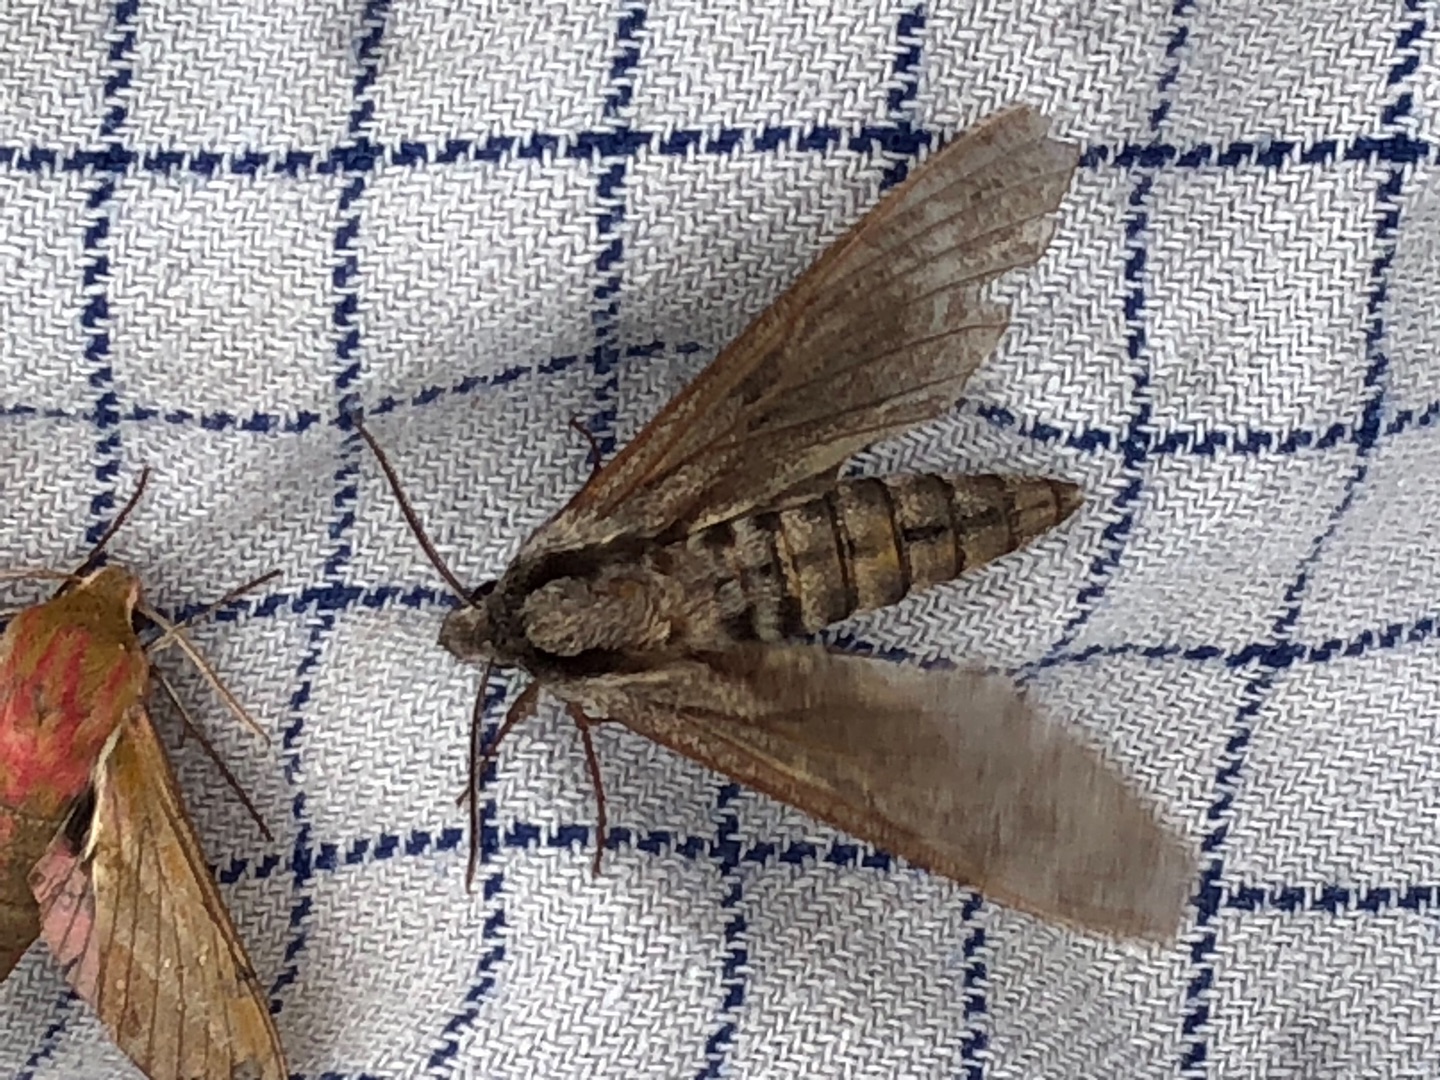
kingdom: Animalia
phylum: Arthropoda
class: Insecta
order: Lepidoptera
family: Sphingidae
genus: Sphinx
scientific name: Sphinx pinastri
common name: Fyrresværmer
